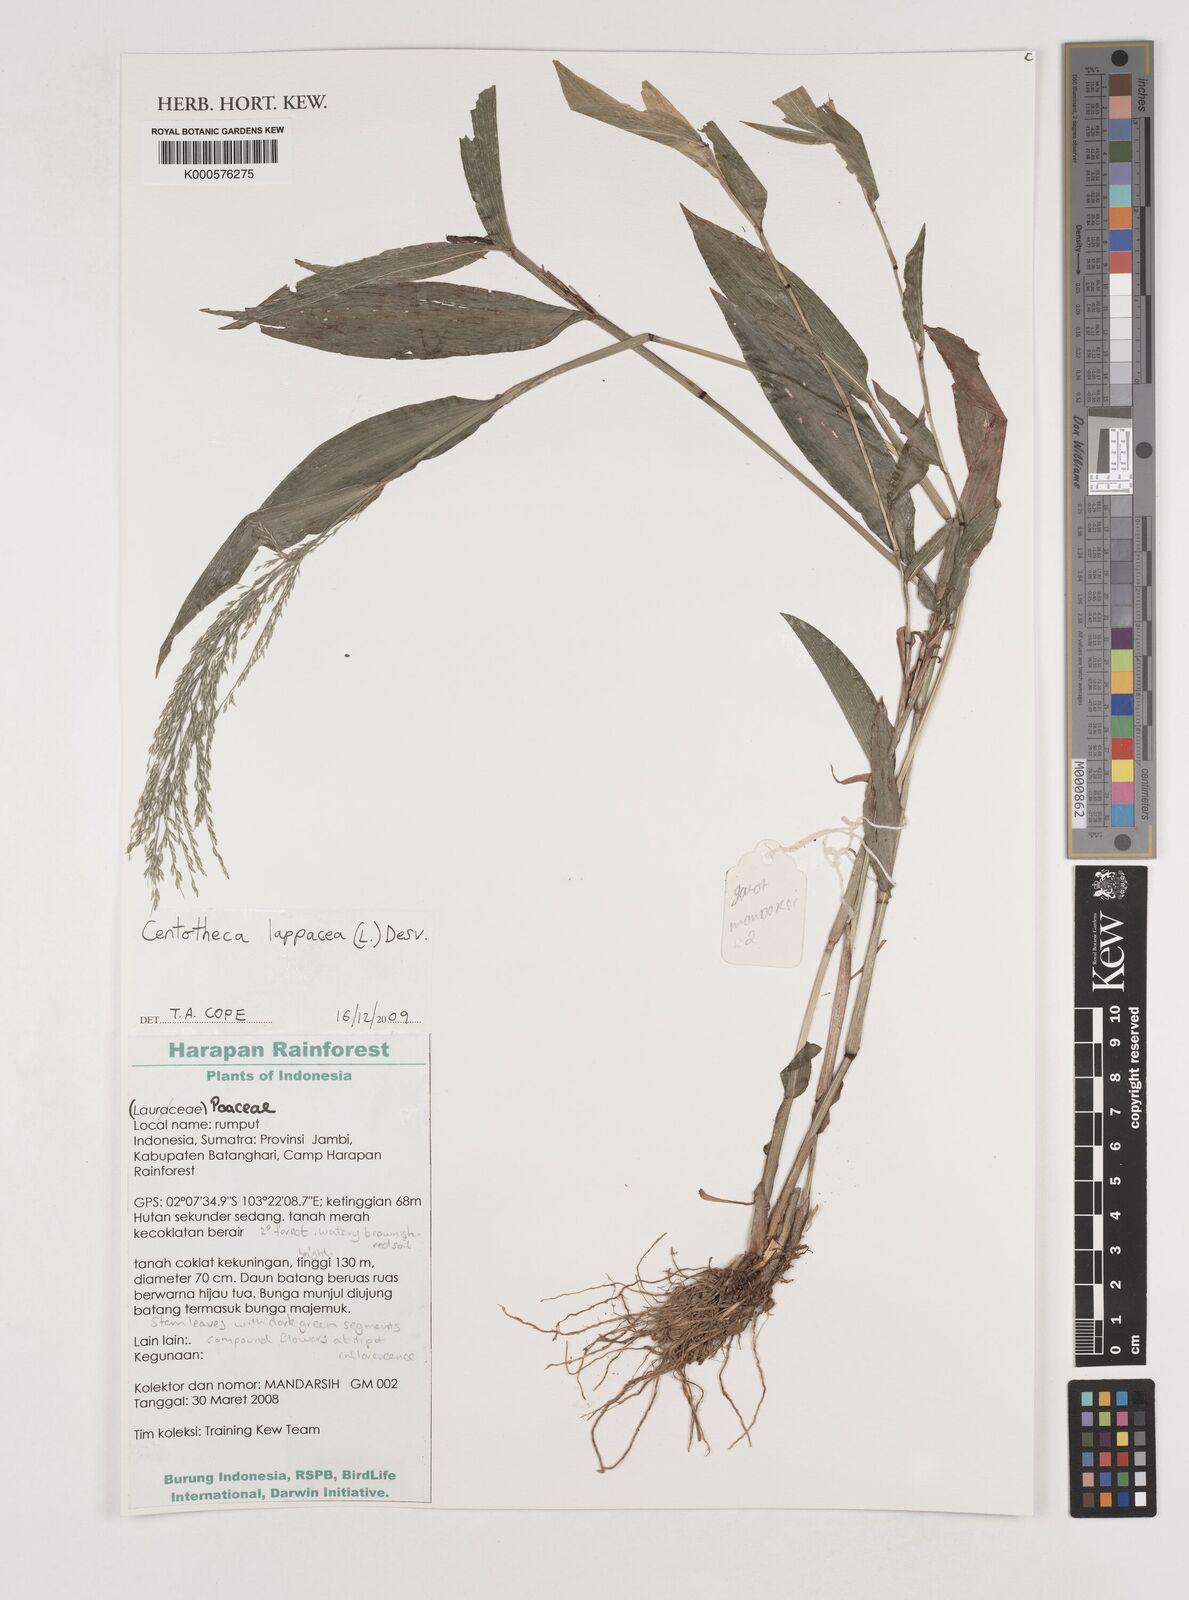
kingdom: Plantae
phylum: Tracheophyta
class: Liliopsida
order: Poales
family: Poaceae
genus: Centotheca
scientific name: Centotheca lappacea
